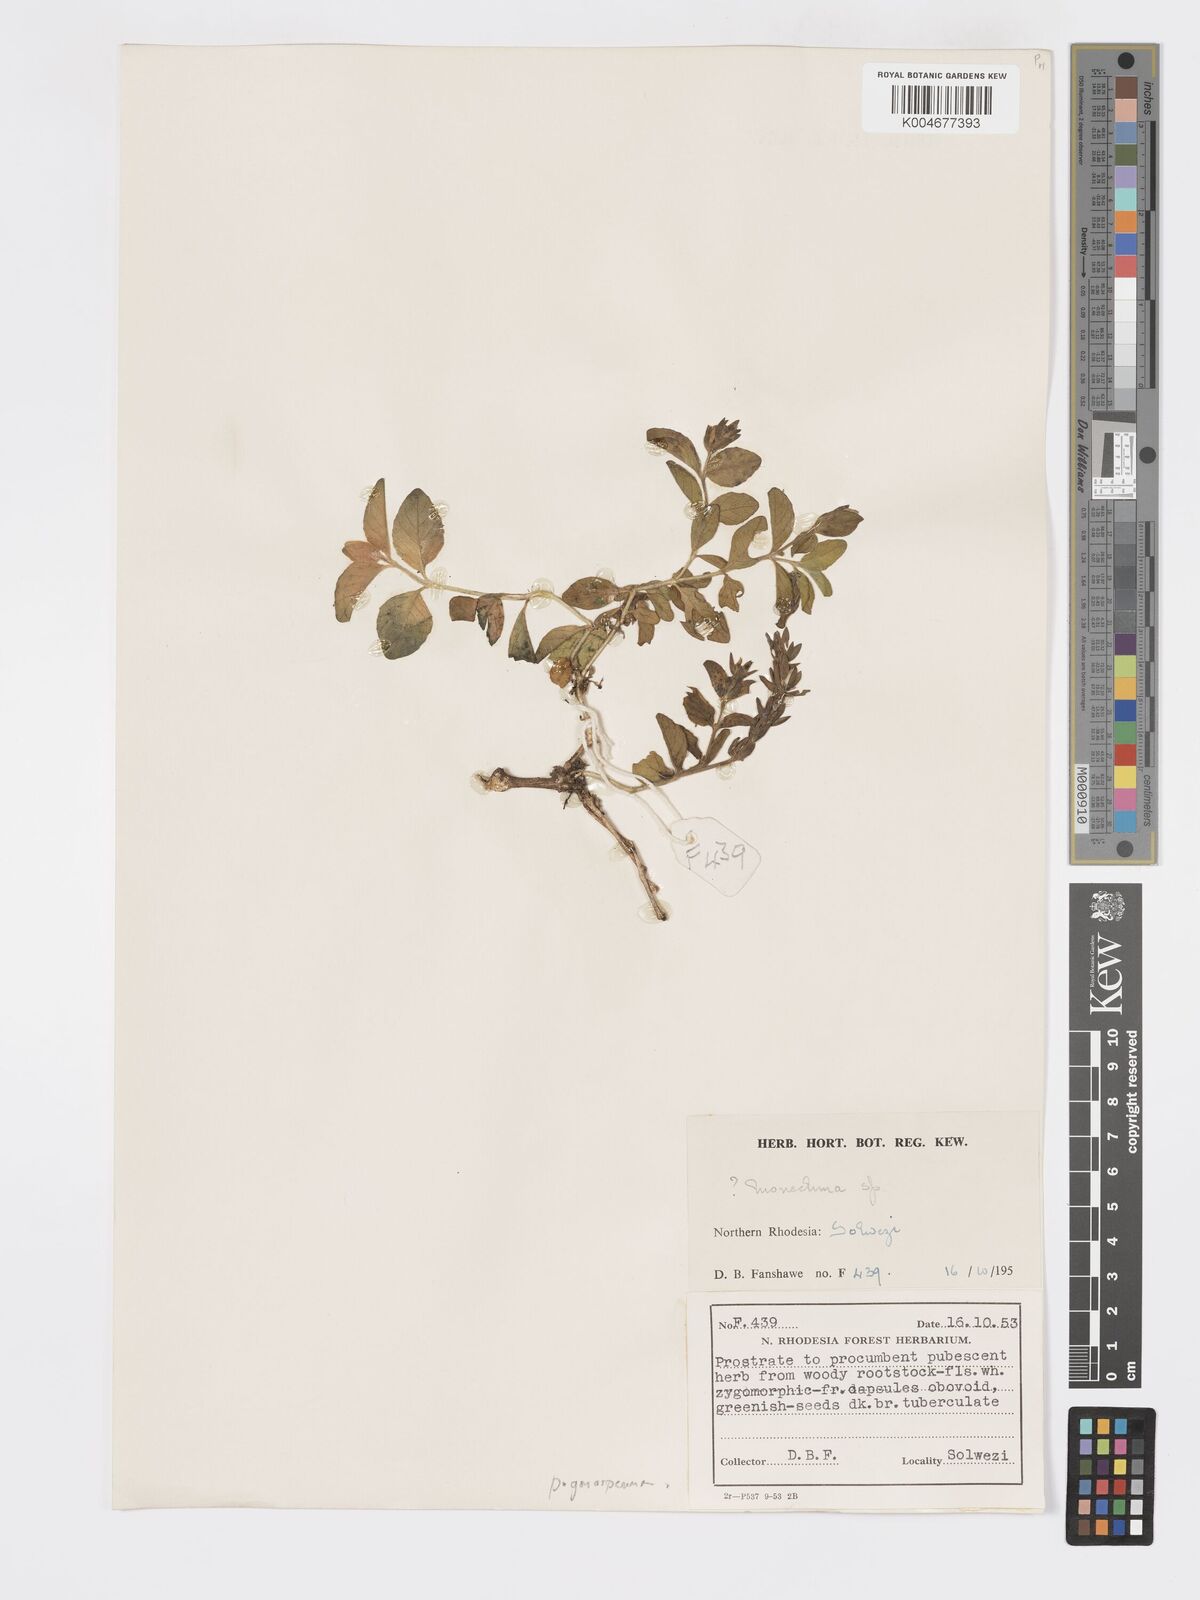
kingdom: Plantae
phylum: Tracheophyta
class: Magnoliopsida
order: Lamiales
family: Acanthaceae
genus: Pogonospermum
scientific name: Pogonospermum ciliare
